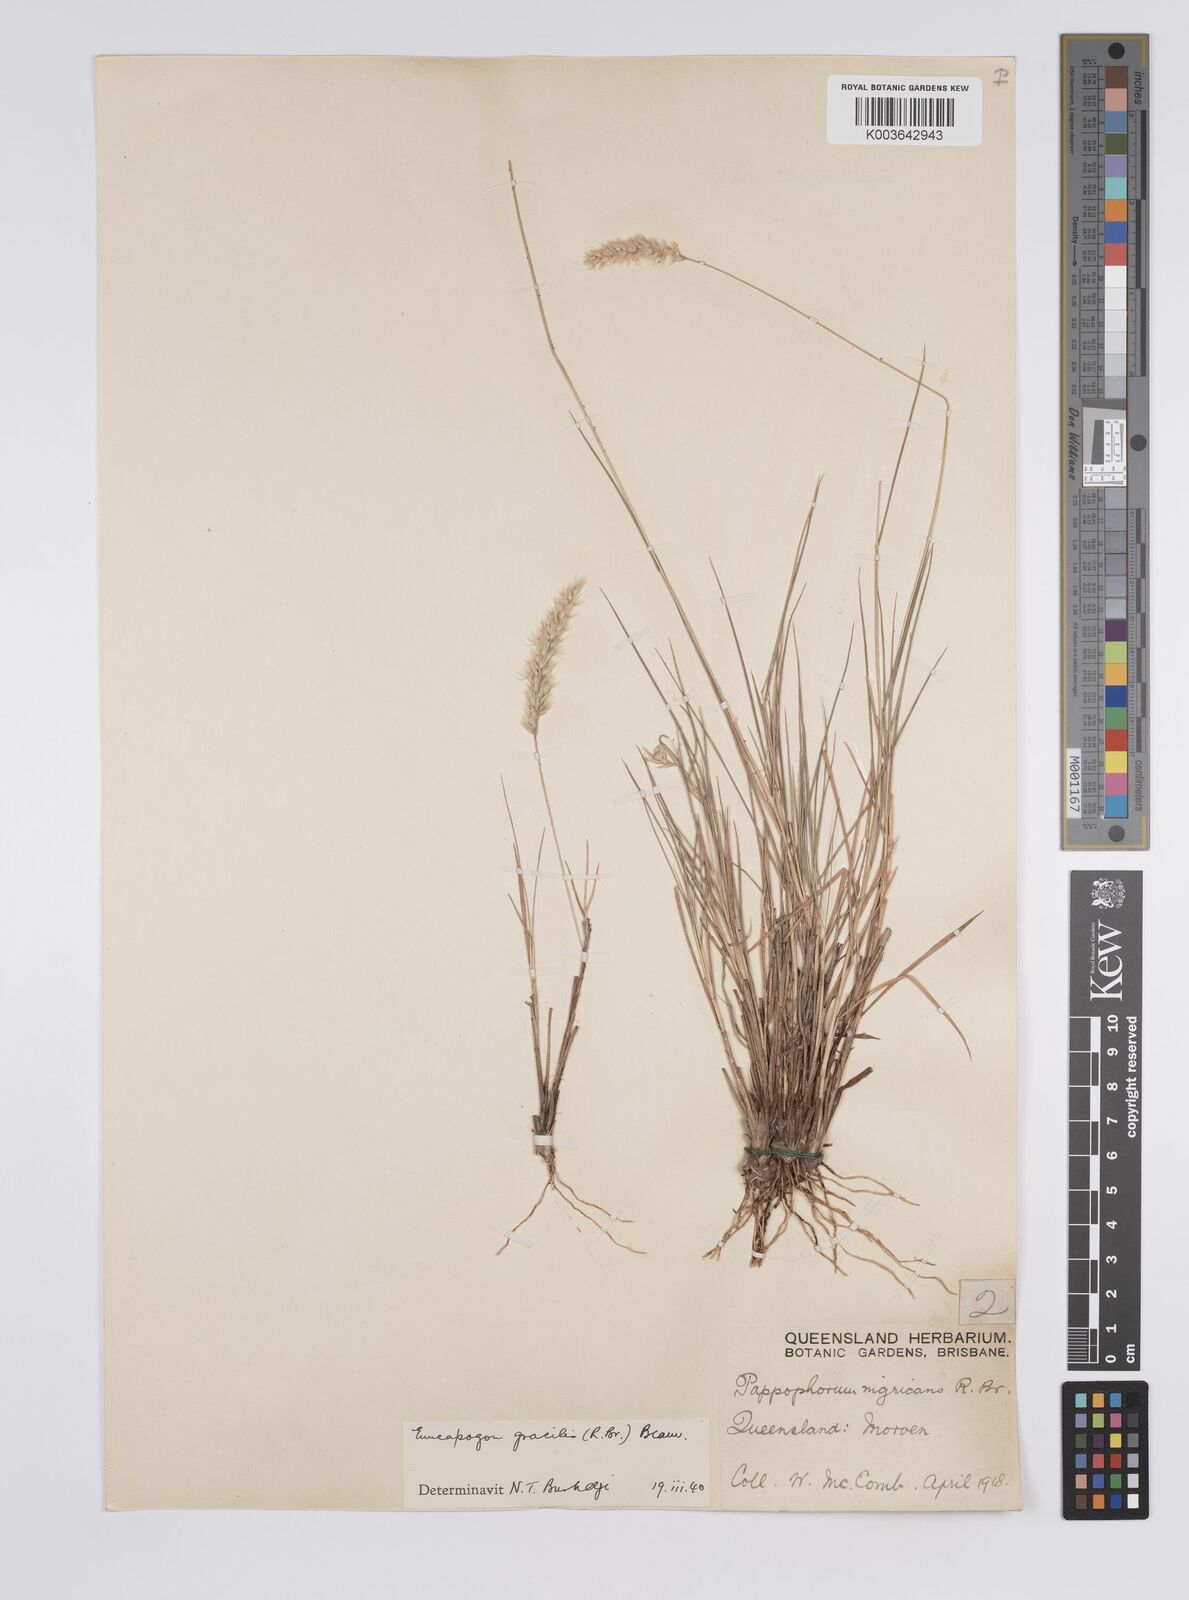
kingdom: Plantae
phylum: Tracheophyta
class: Liliopsida
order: Poales
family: Poaceae
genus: Enneapogon
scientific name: Enneapogon gracilis
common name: Slender bottle-washers
